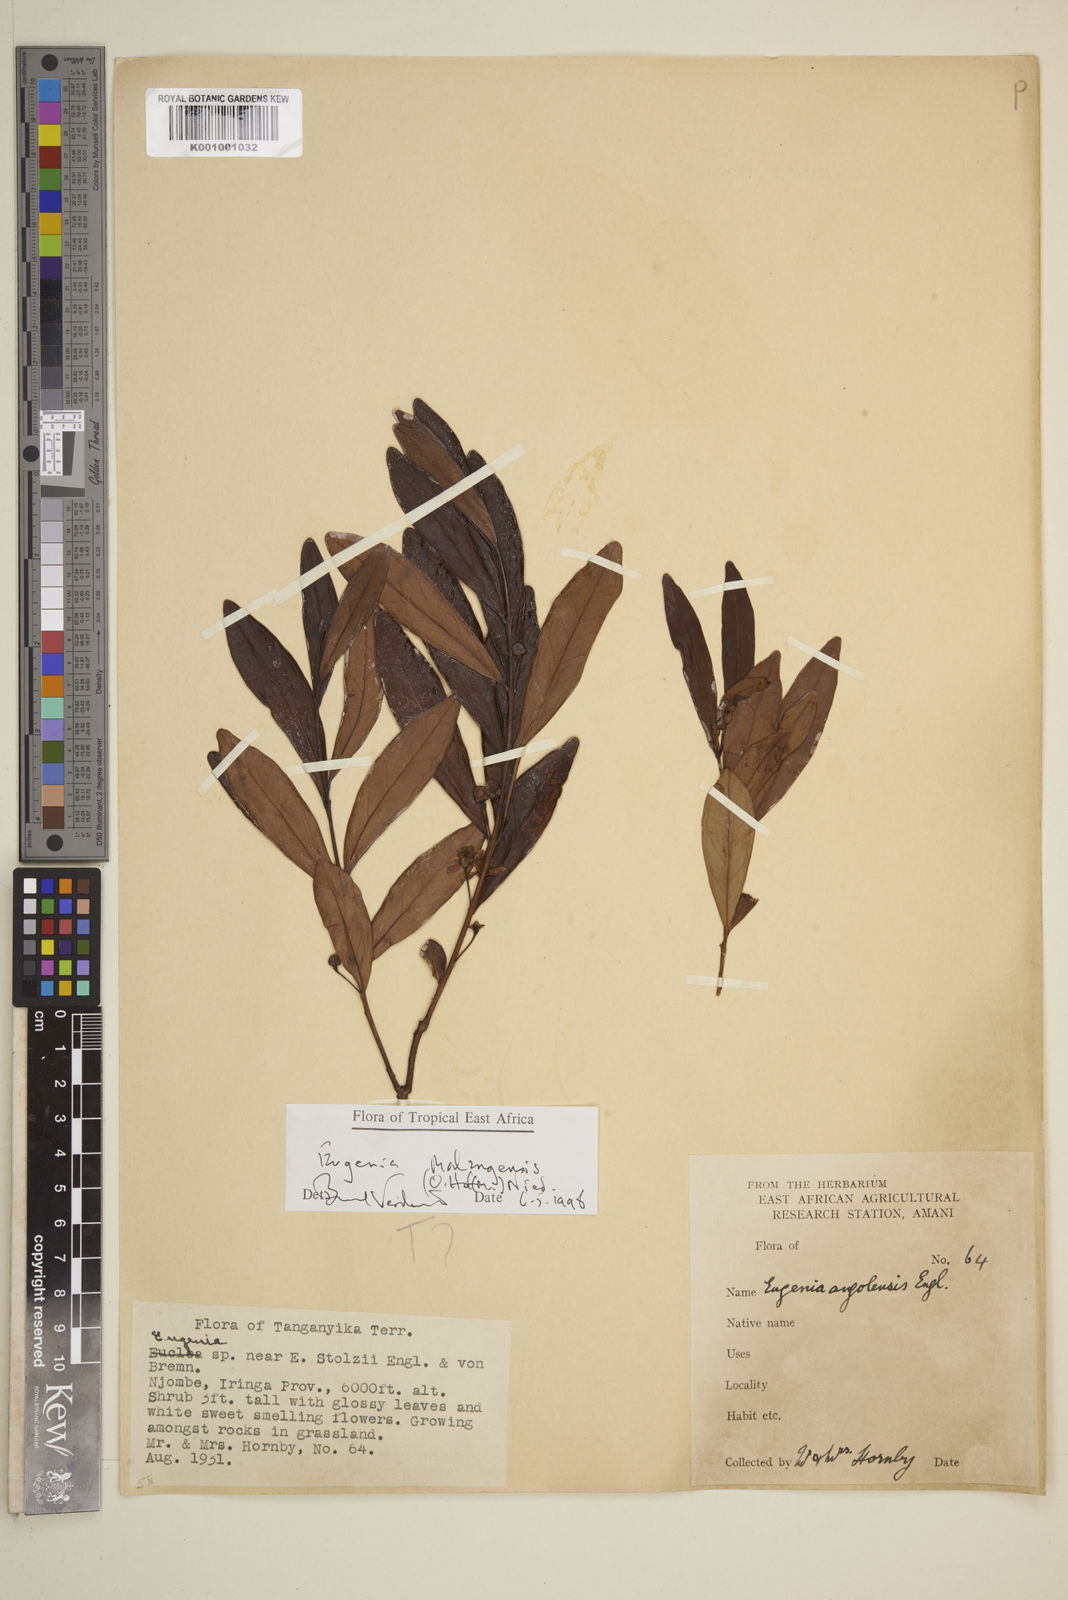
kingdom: Plantae
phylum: Tracheophyta
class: Magnoliopsida
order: Myrtales
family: Myrtaceae
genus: Eugenia
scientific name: Eugenia malangensis
